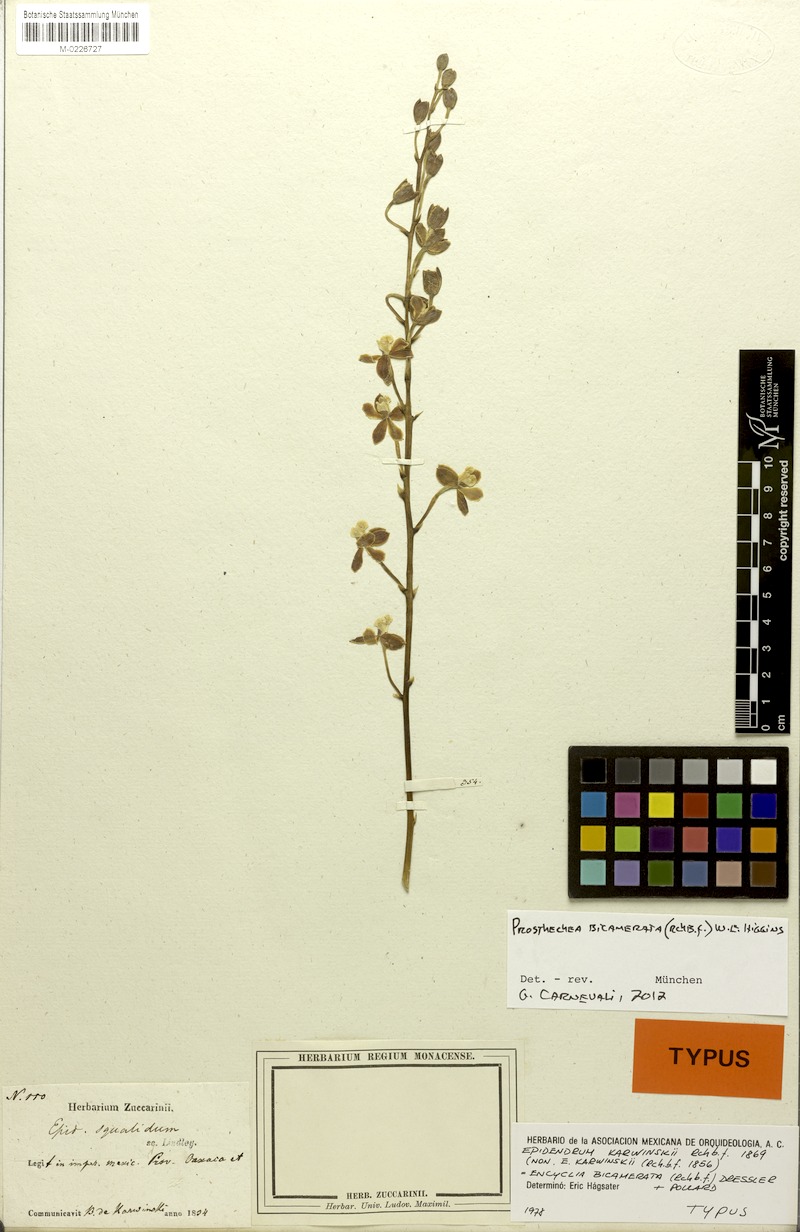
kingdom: Plantae
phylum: Tracheophyta
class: Liliopsida
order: Asparagales
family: Orchidaceae
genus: Prosthechea
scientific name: Prosthechea bicamerata
